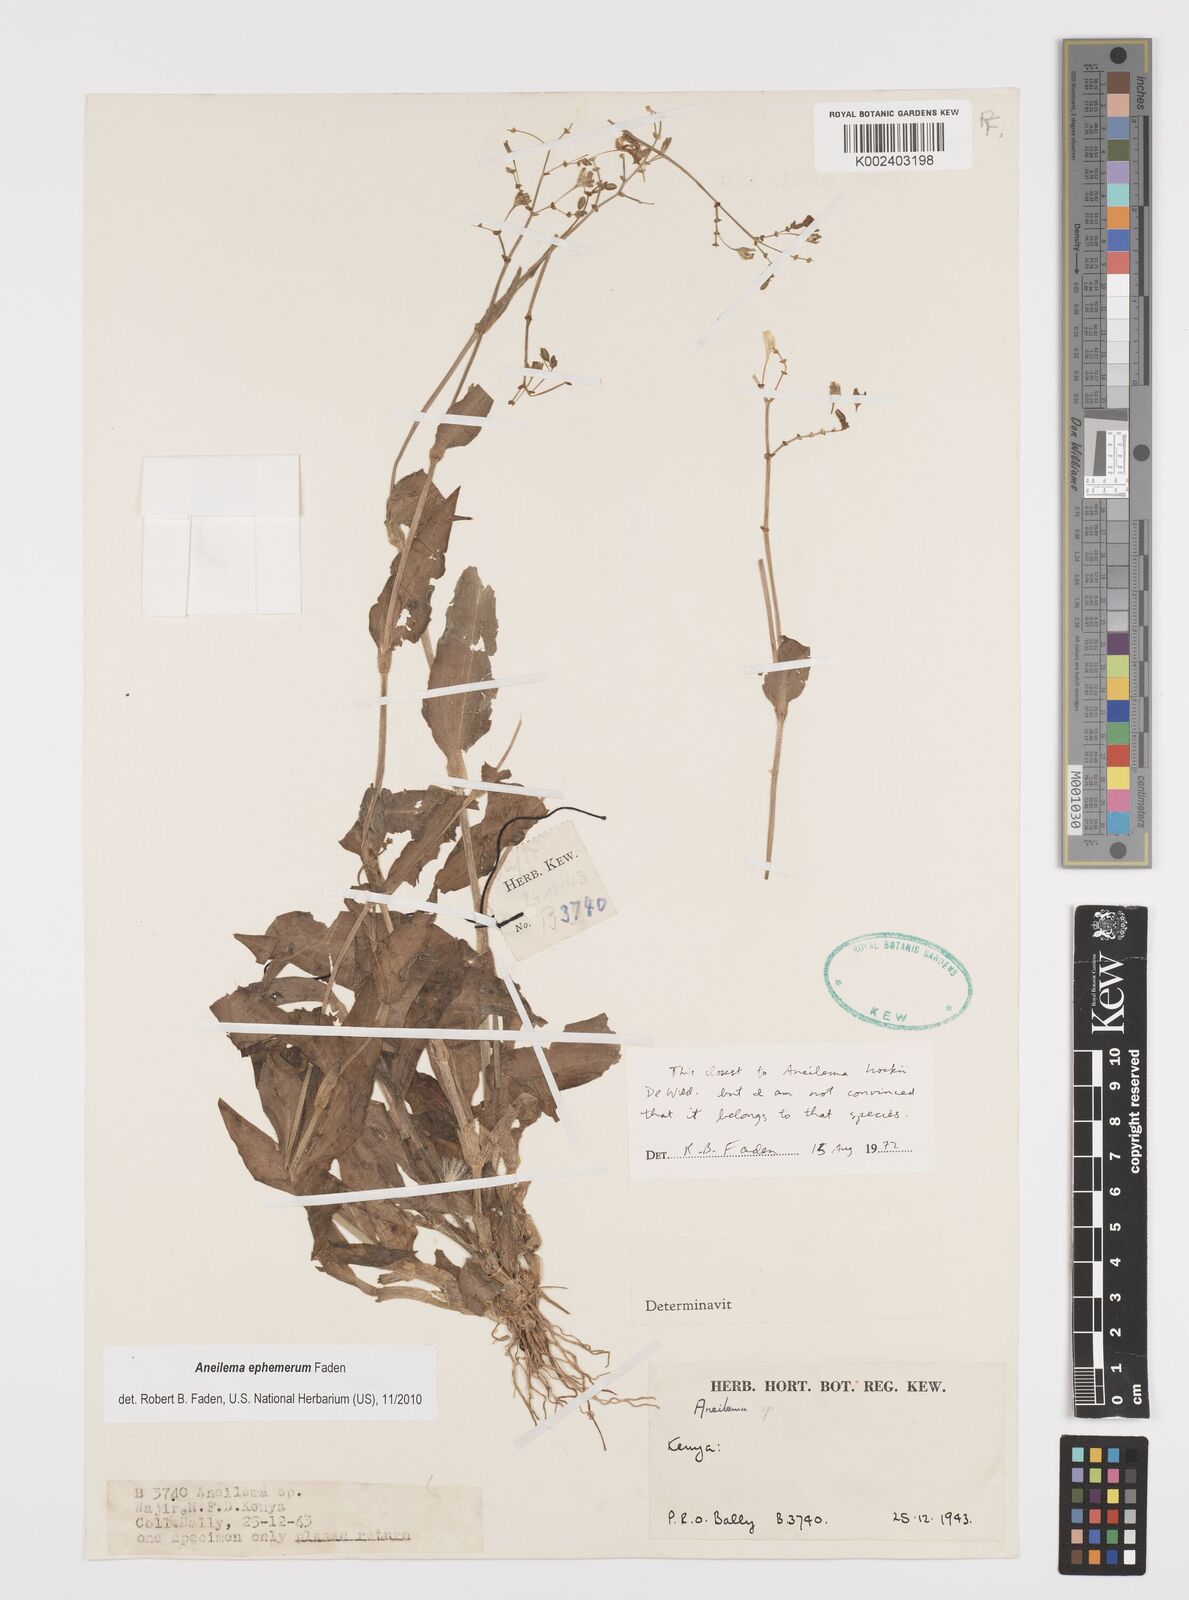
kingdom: Plantae
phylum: Tracheophyta
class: Liliopsida
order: Commelinales
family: Commelinaceae
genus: Aneilema
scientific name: Aneilema ephemerum
